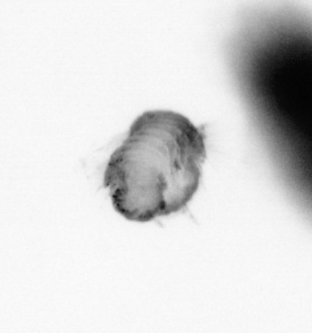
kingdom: Animalia
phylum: Annelida
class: Polychaeta
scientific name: Polychaeta
